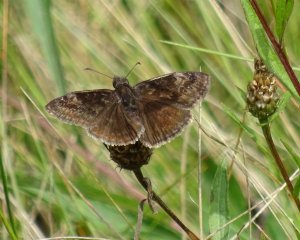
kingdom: Animalia
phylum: Arthropoda
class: Insecta
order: Lepidoptera
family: Hesperiidae
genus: Gesta
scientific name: Gesta
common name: Wild Indigo Duskywing
